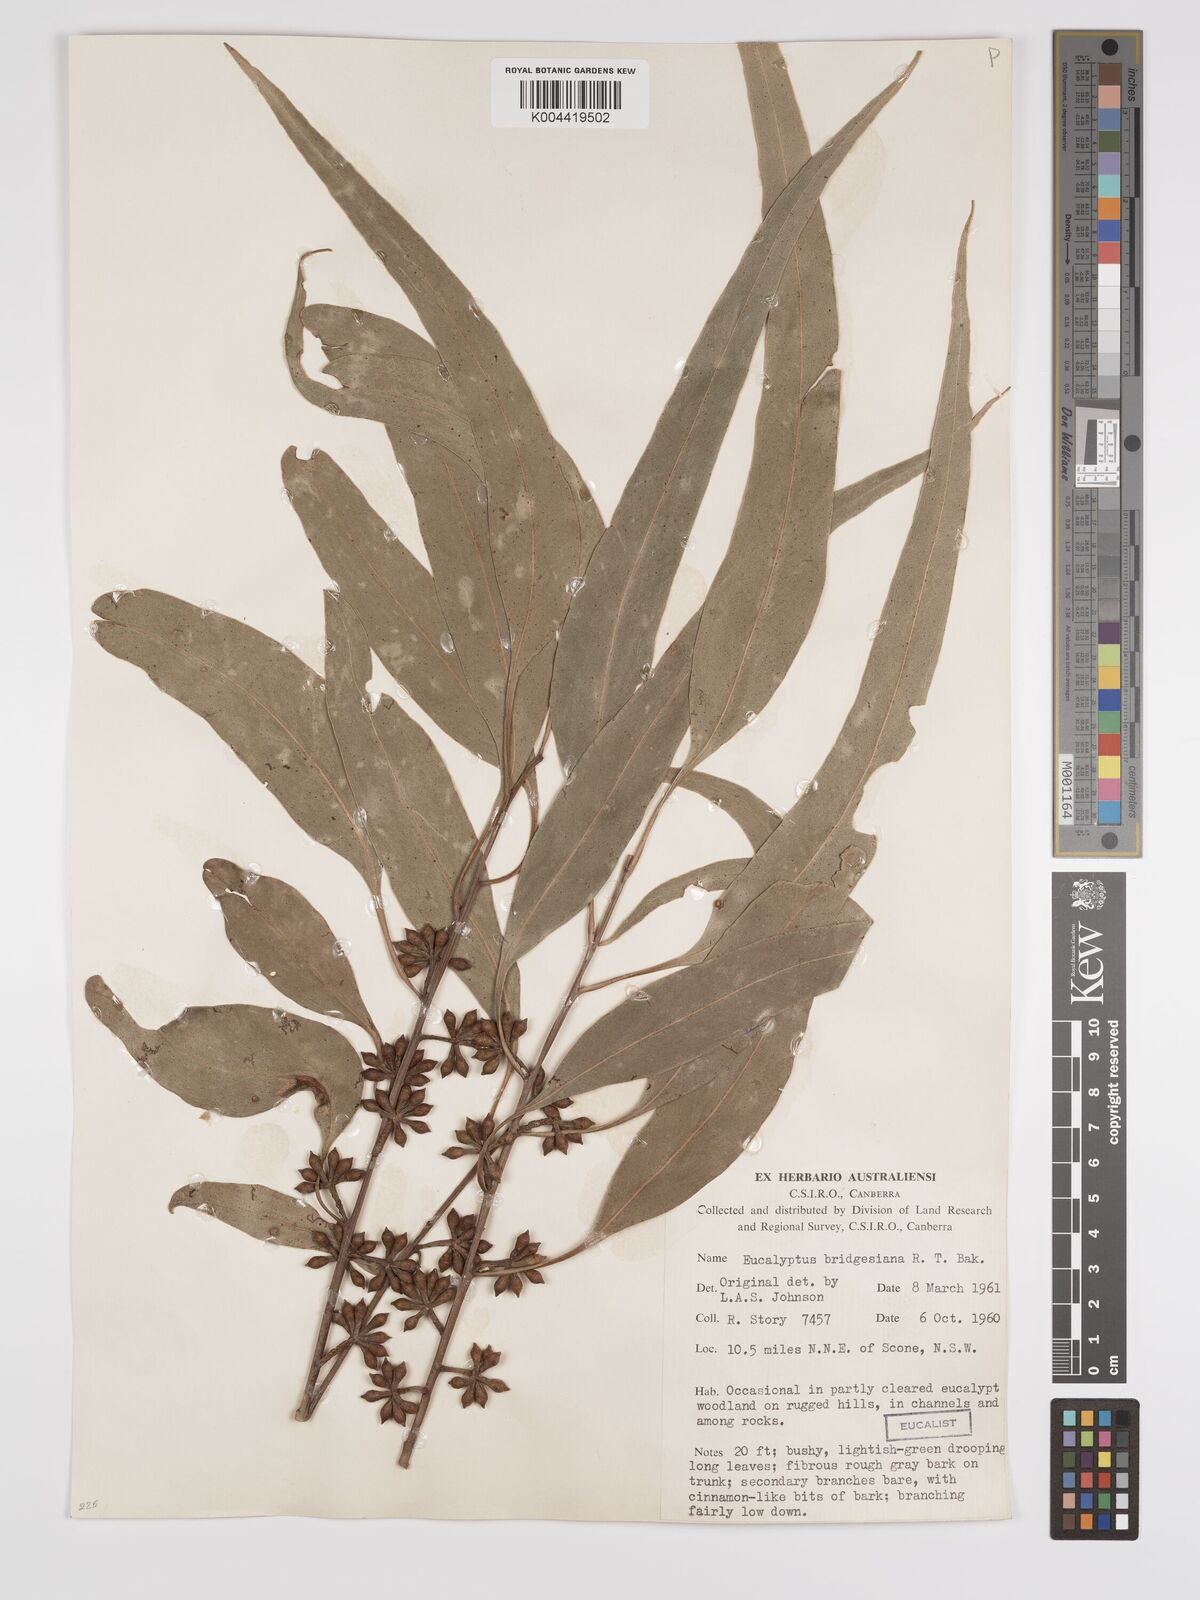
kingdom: Plantae
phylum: Tracheophyta
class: Magnoliopsida
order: Myrtales
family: Myrtaceae
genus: Eucalyptus
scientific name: Eucalyptus bridgesiana
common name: Applebox
